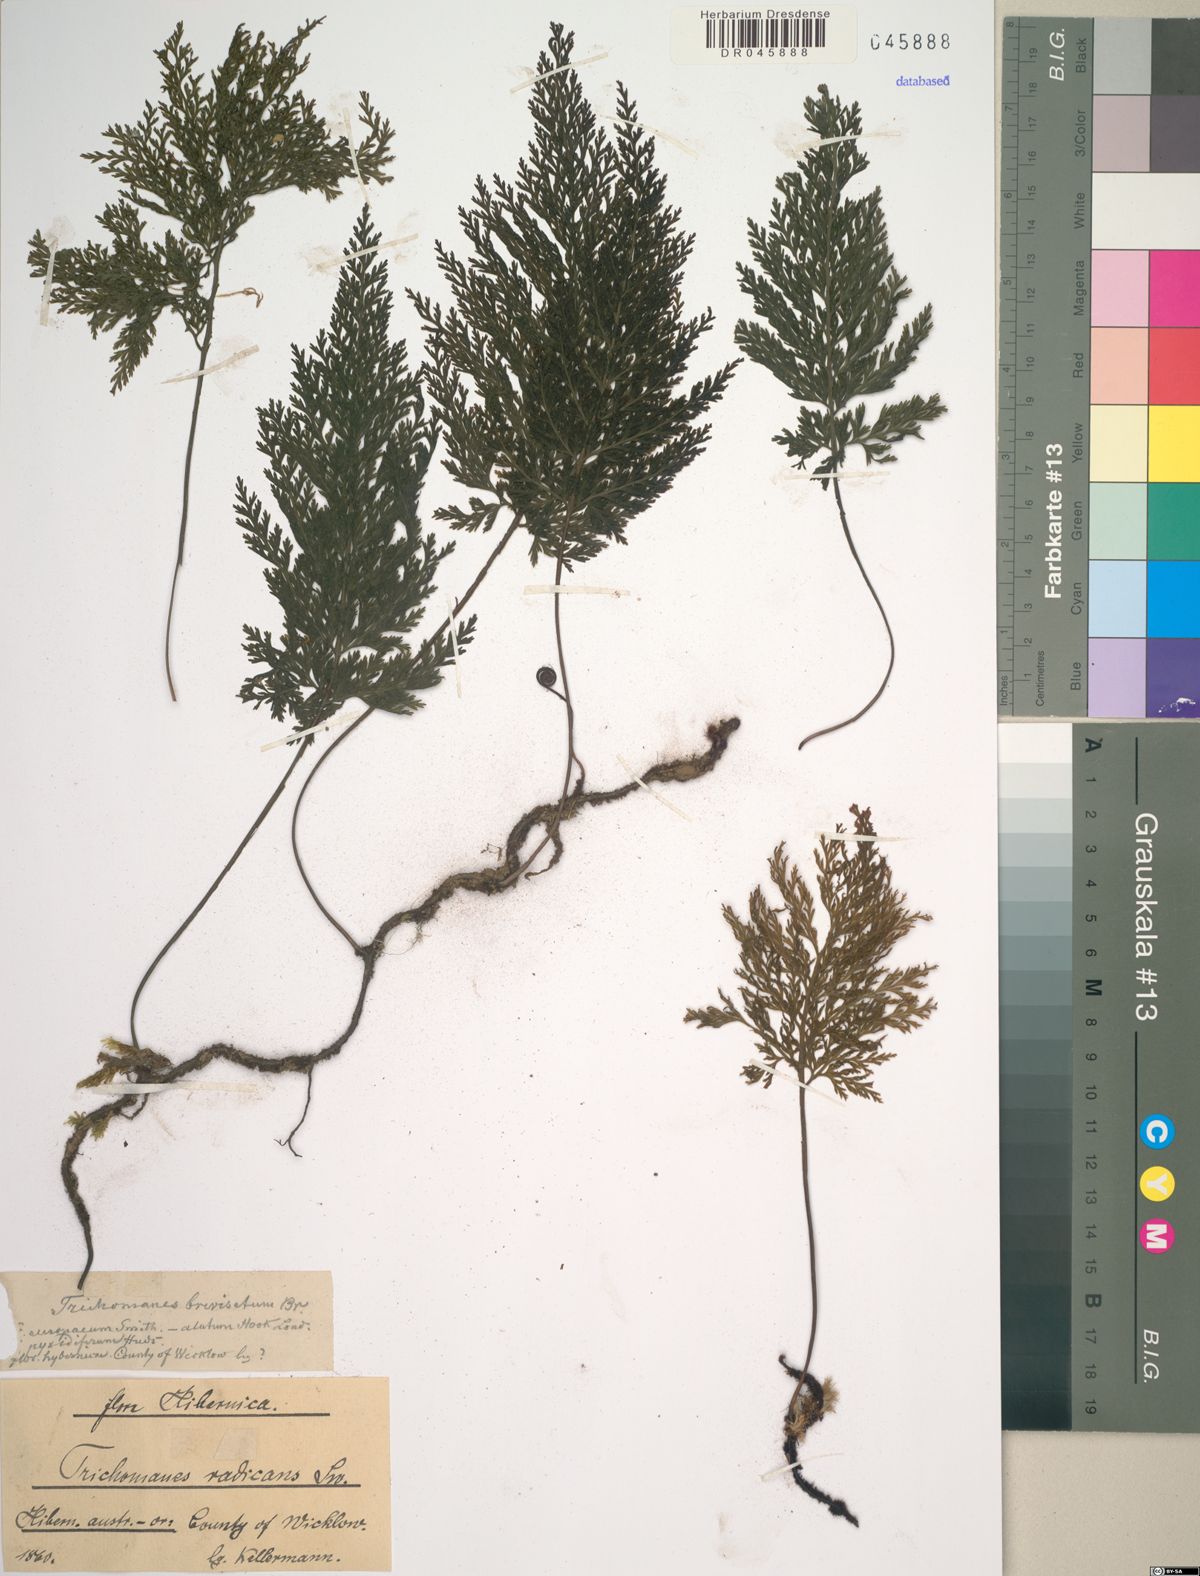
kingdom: Plantae
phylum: Tracheophyta
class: Polypodiopsida
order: Hymenophyllales
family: Hymenophyllaceae
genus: Vandenboschia
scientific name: Vandenboschia radicans
